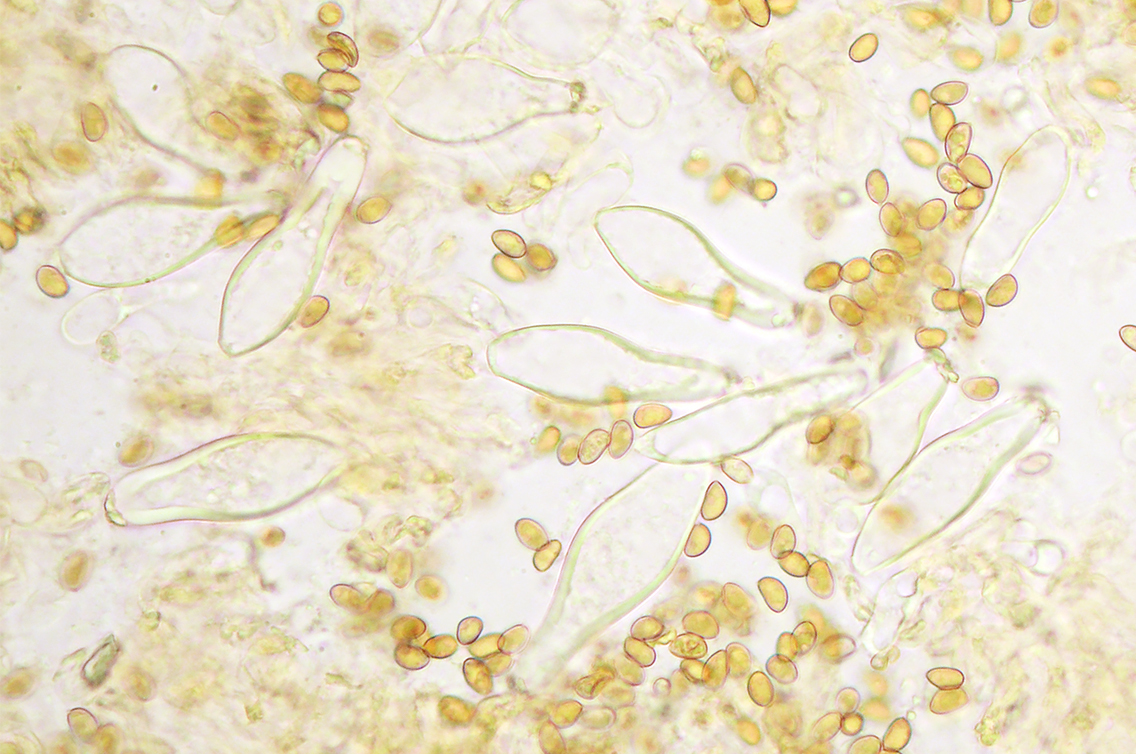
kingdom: Fungi
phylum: Basidiomycota
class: Agaricomycetes
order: Agaricales
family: Inocybaceae
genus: Inocybe
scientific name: Inocybe glabripes
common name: småsporet trævlhat
